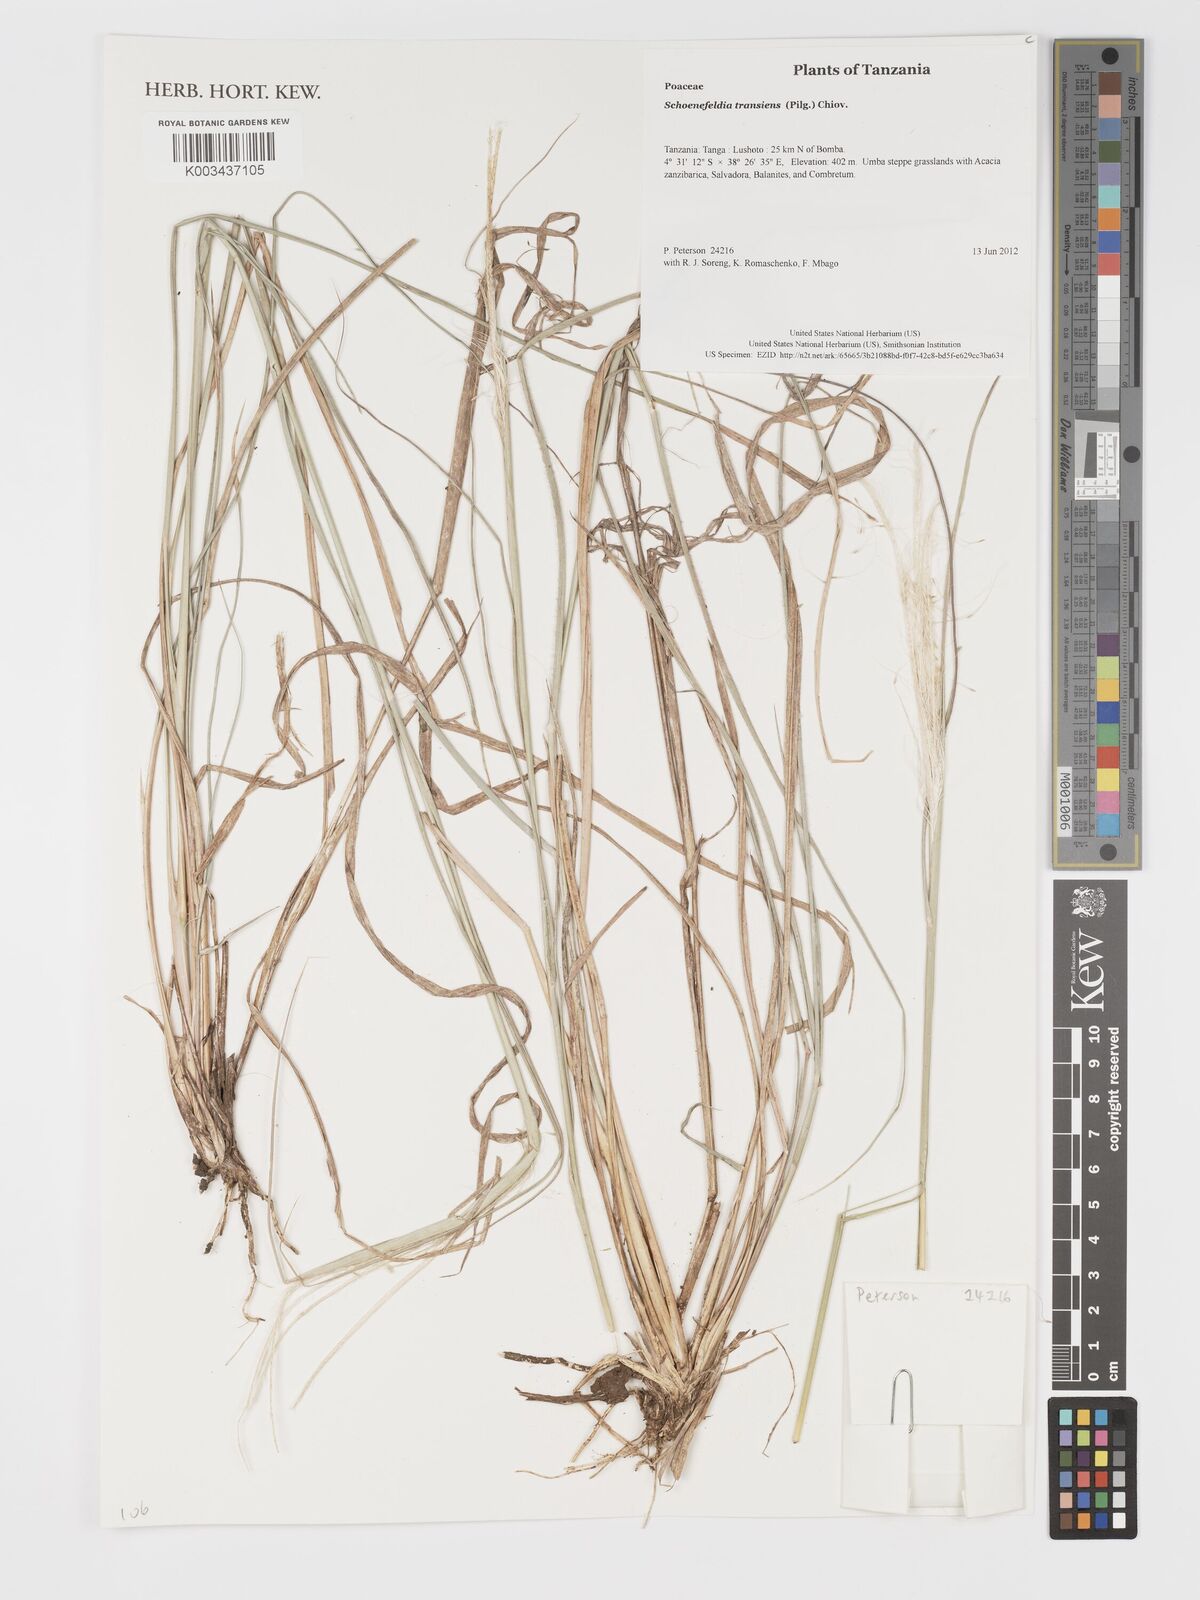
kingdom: Plantae
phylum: Tracheophyta
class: Liliopsida
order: Poales
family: Poaceae
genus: Schoenefeldia
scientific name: Schoenefeldia transiens
